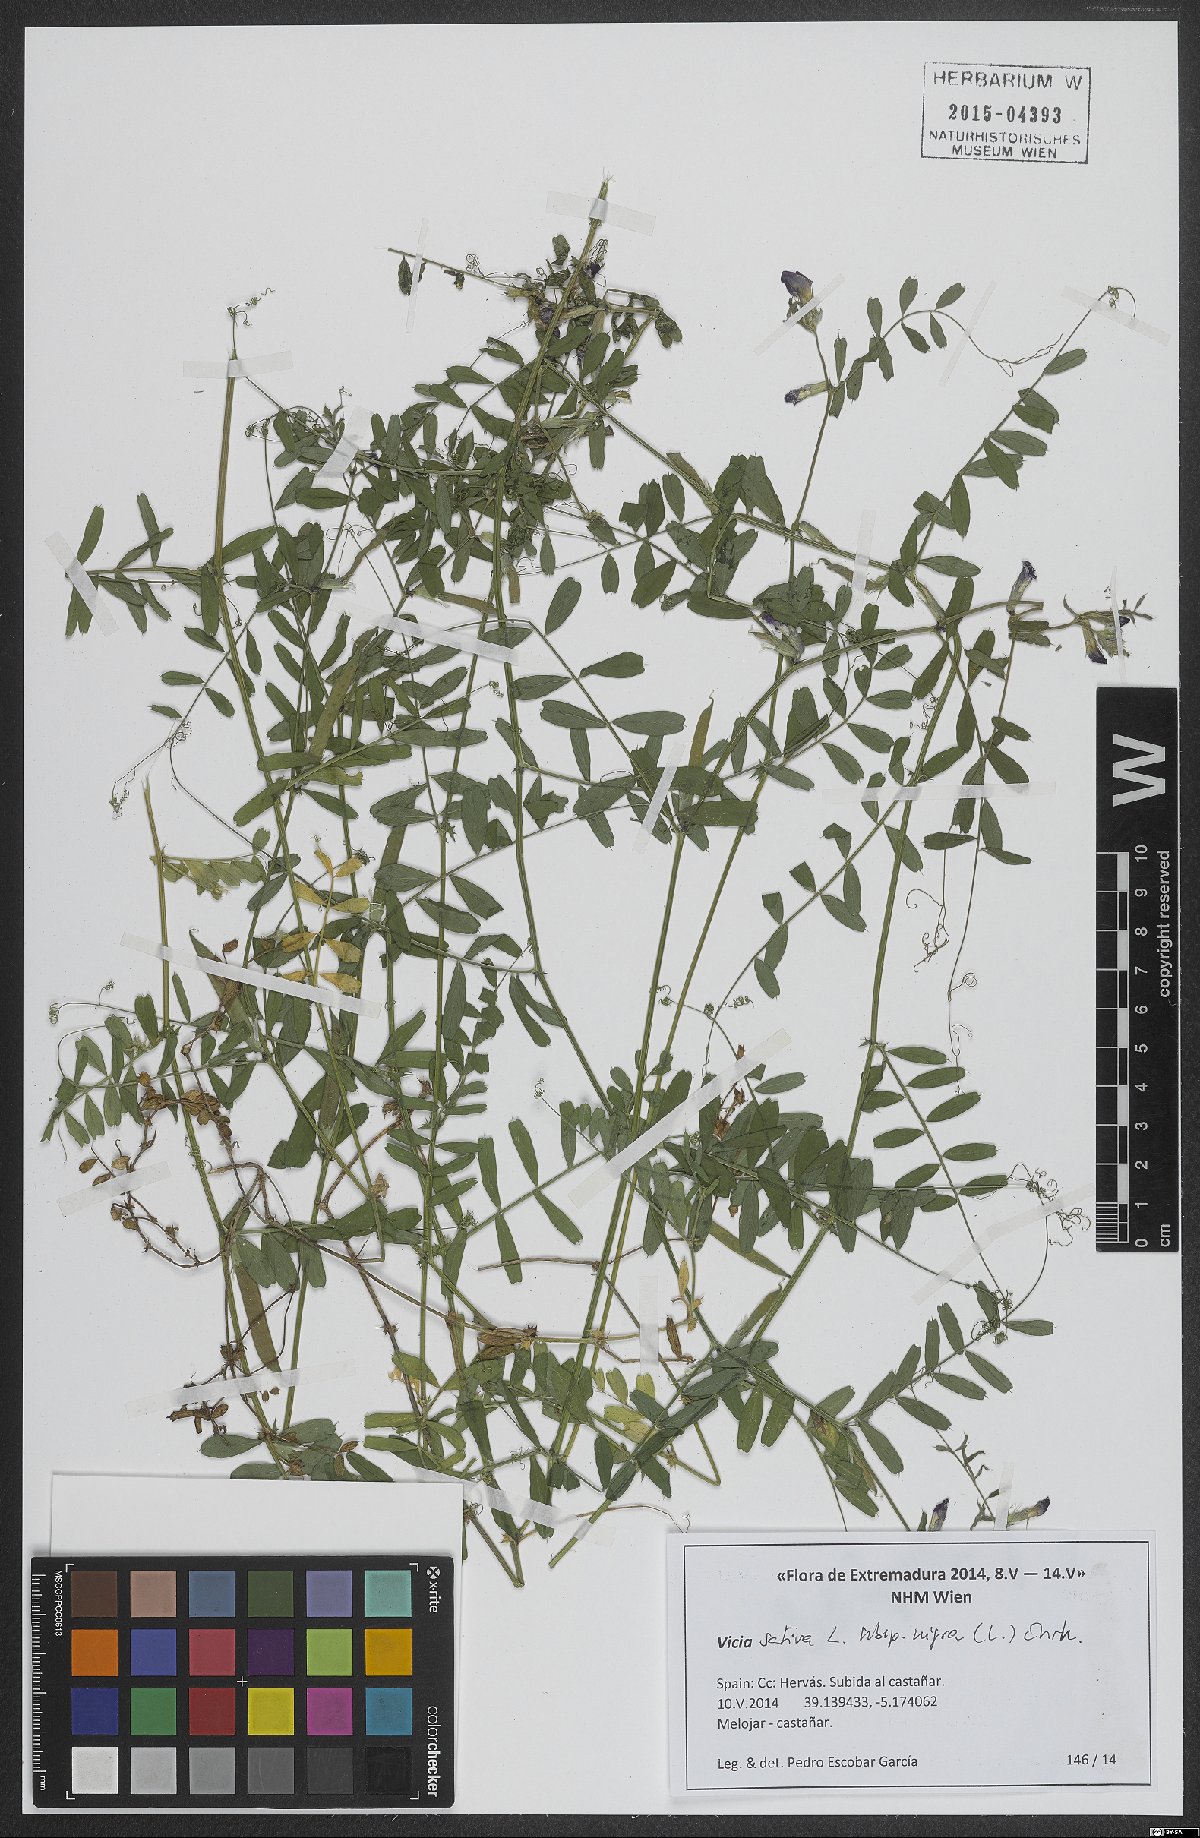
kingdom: Plantae
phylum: Tracheophyta
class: Magnoliopsida
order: Fabales
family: Fabaceae
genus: Vicia
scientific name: Vicia sativa
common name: Garden vetch
